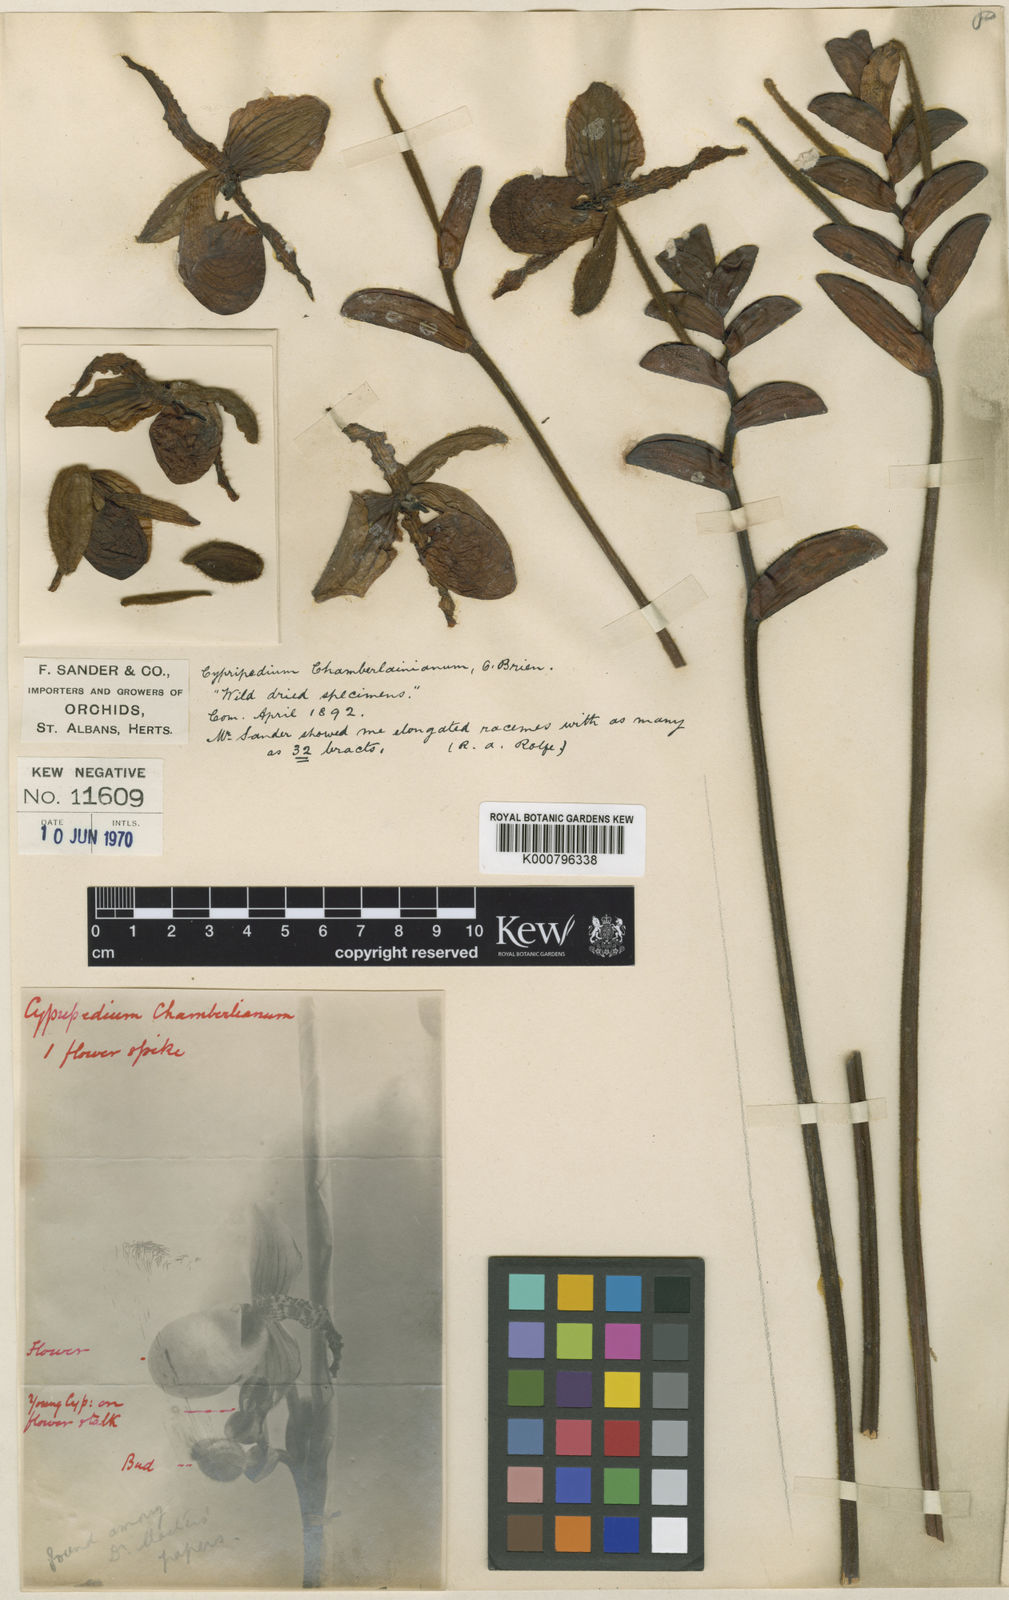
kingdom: Plantae
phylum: Tracheophyta
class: Liliopsida
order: Asparagales
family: Orchidaceae
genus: Paphiopedilum
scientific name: Paphiopedilum victoria-regina
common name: Queen victoria paphiopedilum
